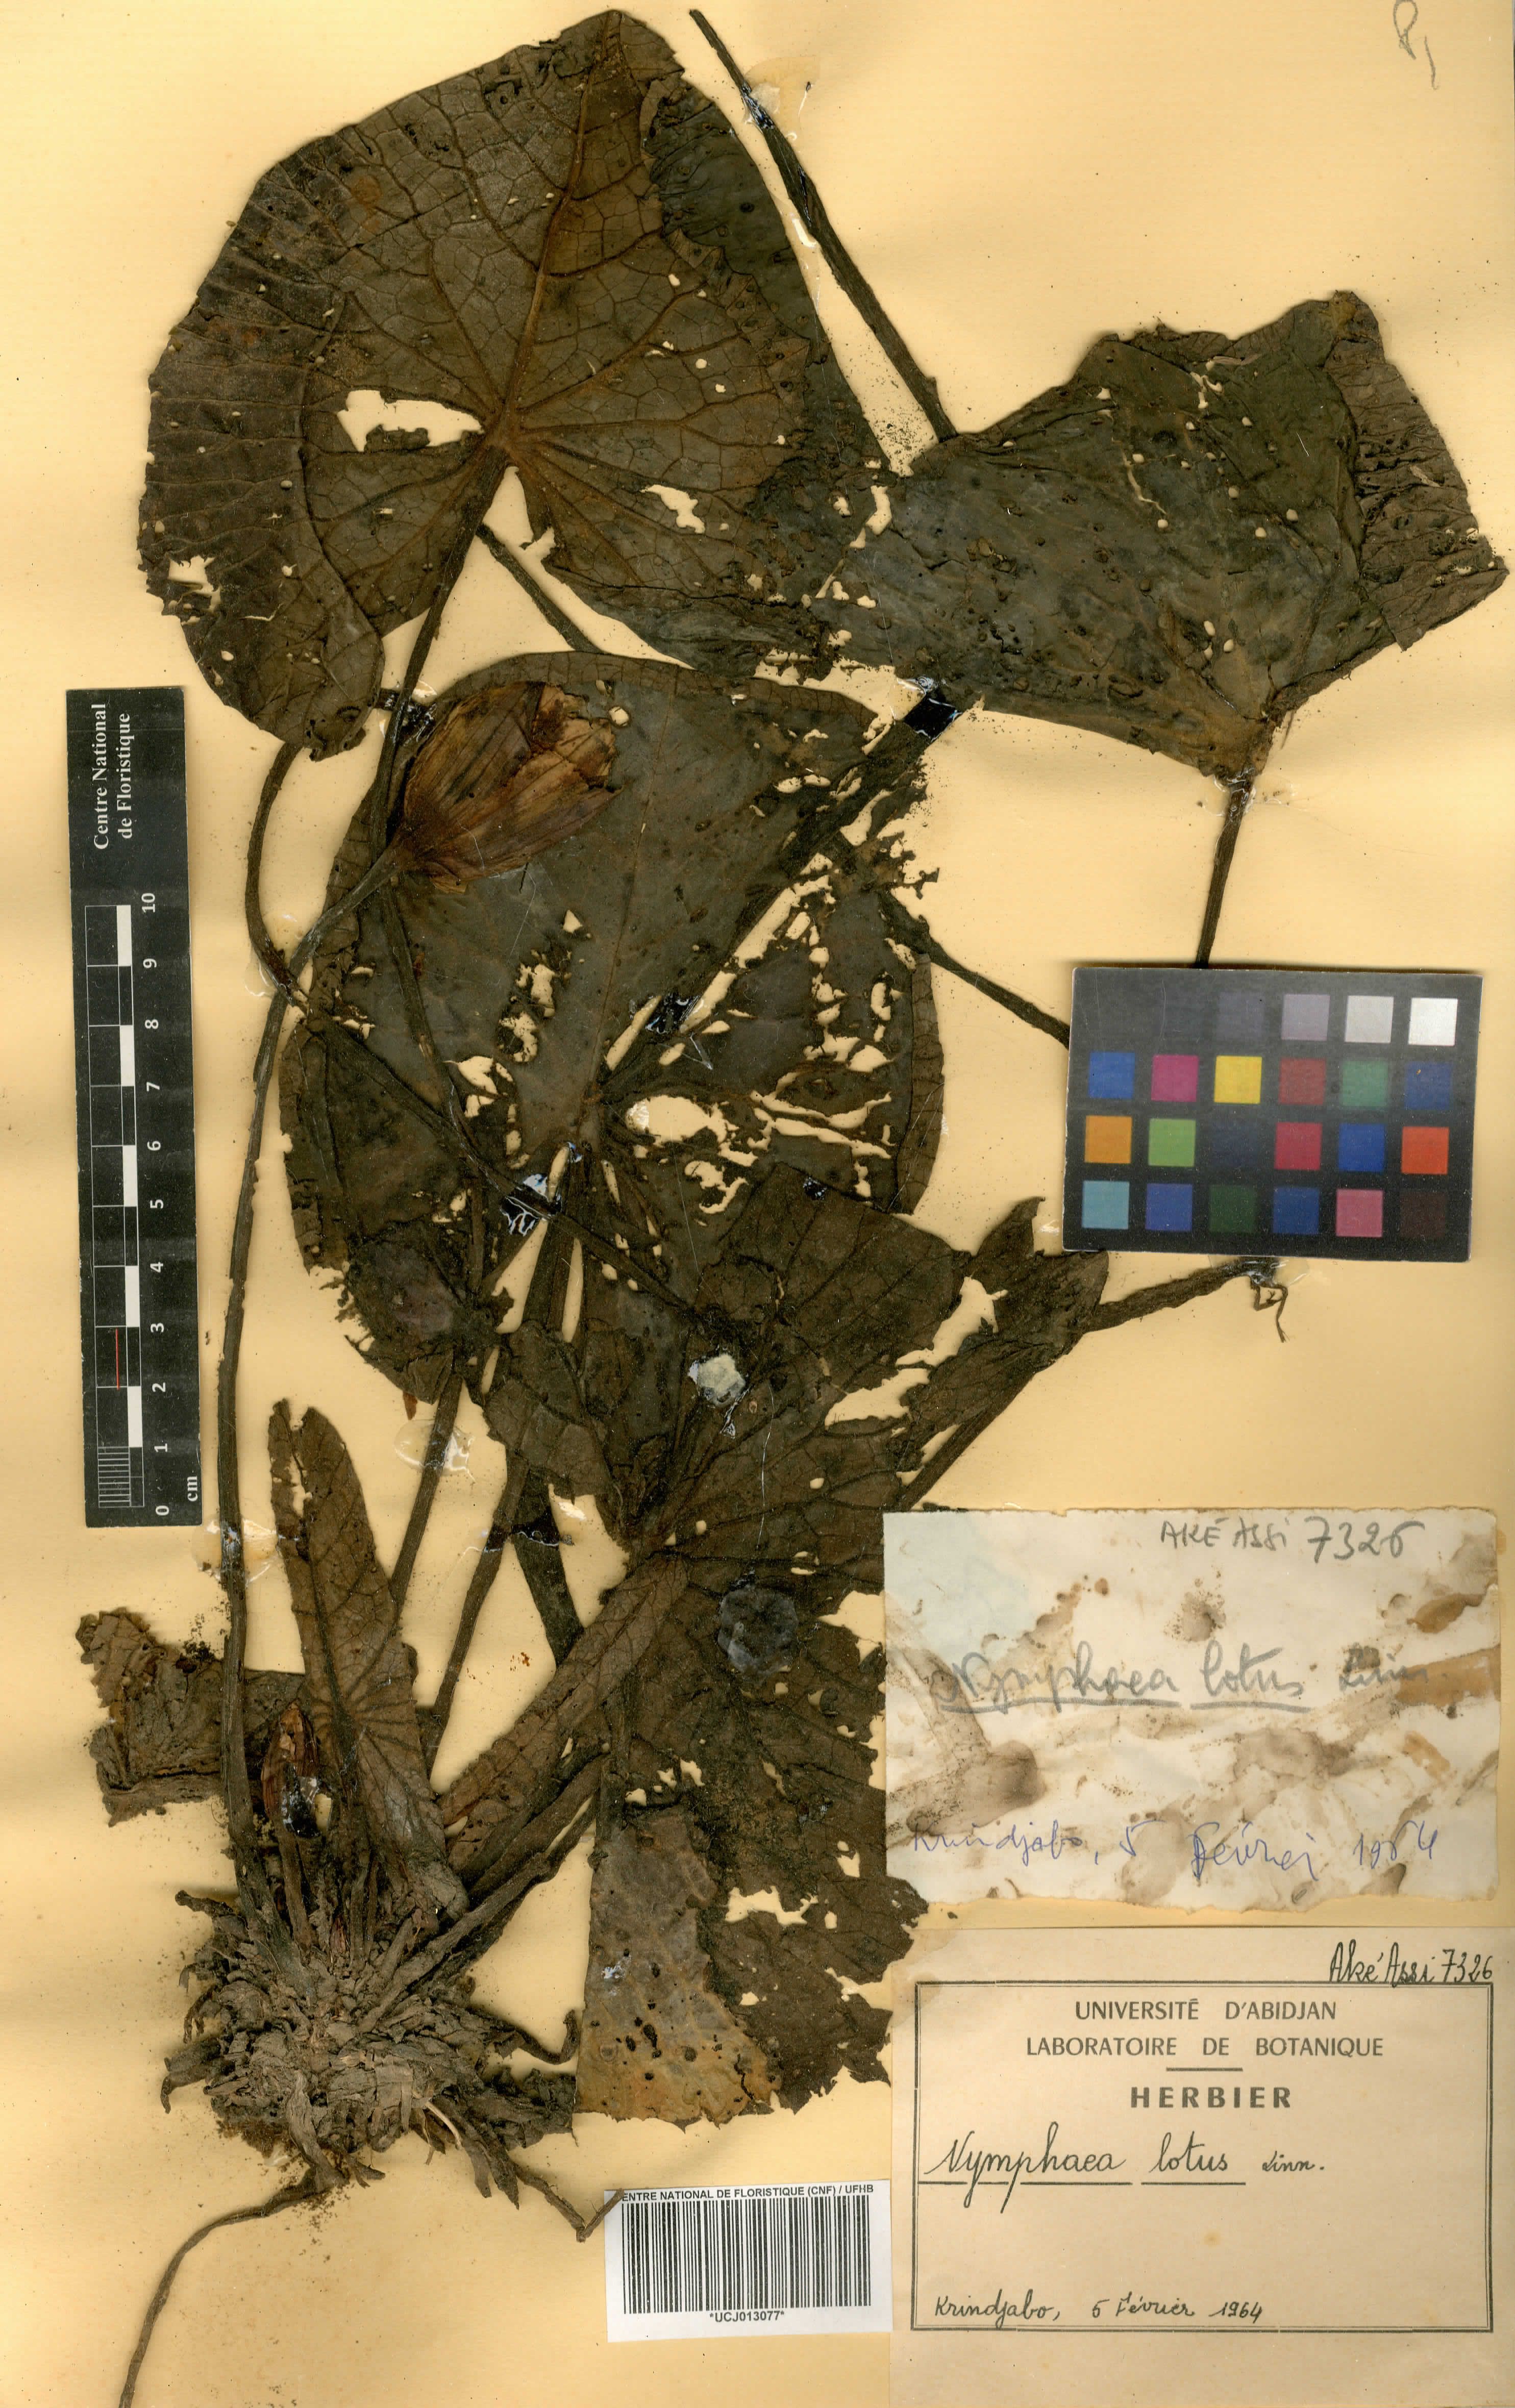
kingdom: Plantae
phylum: Tracheophyta
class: Magnoliopsida
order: Nymphaeales
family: Nymphaeaceae
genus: Nymphaea
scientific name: Nymphaea lotus
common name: White egyptian lotus
